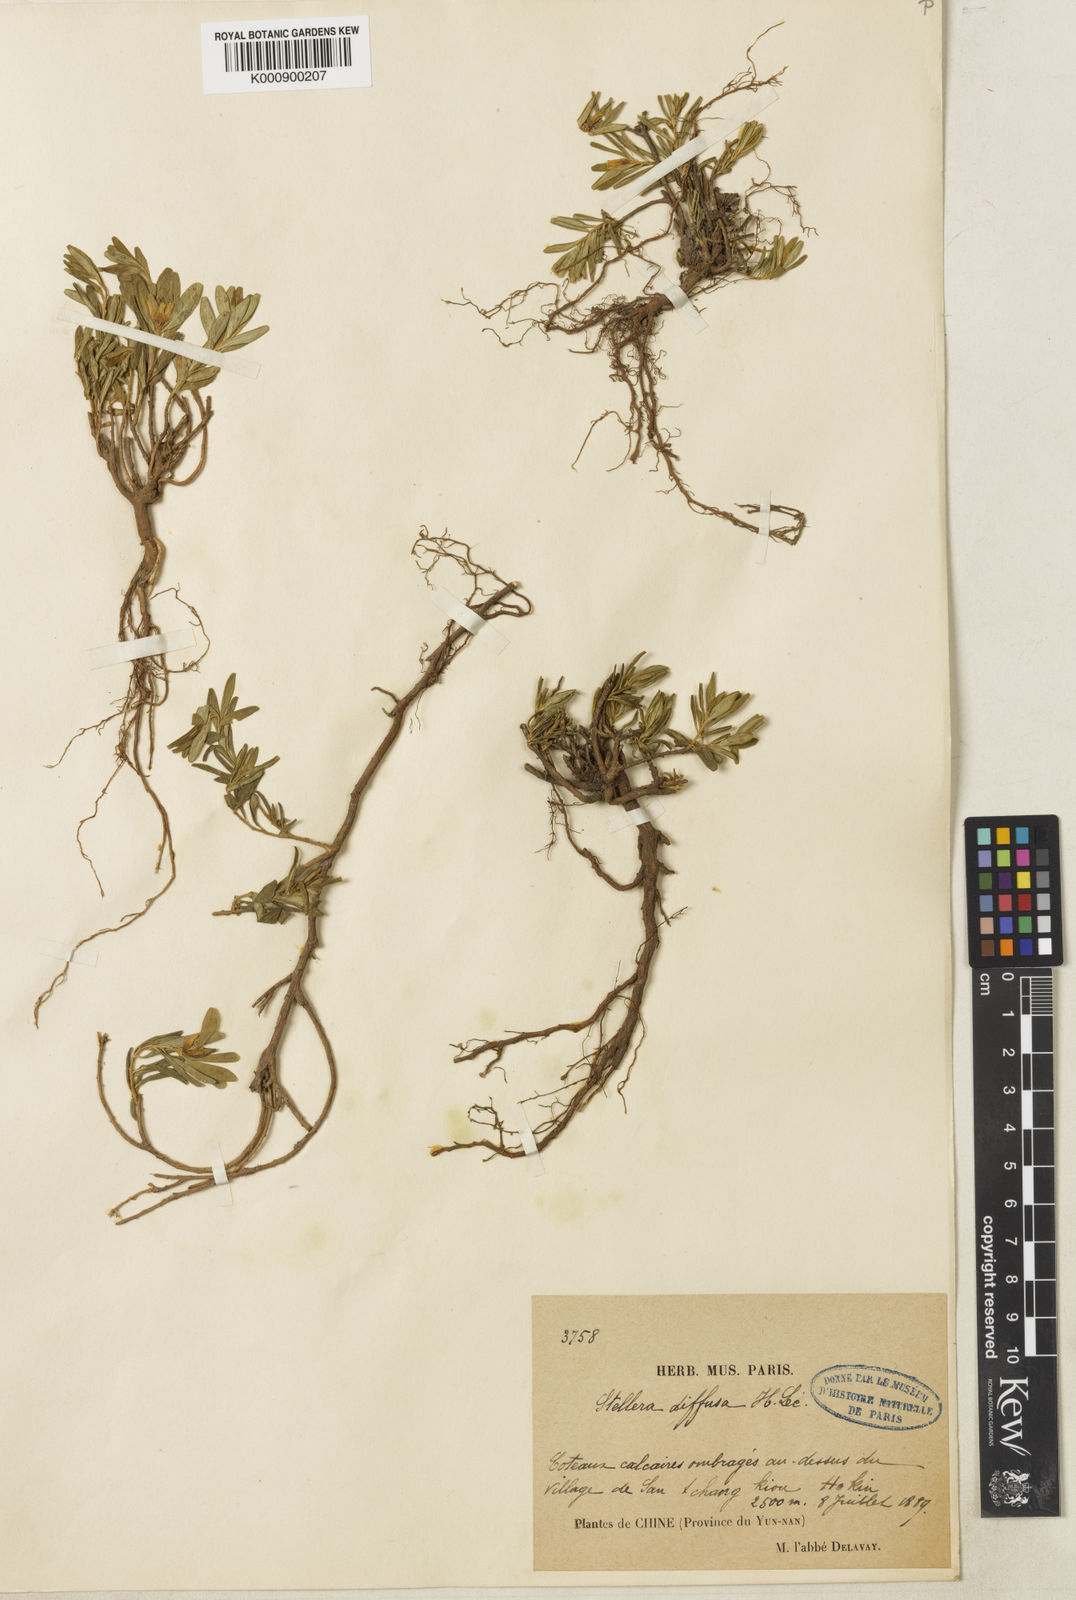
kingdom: Plantae
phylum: Tracheophyta
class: Magnoliopsida
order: Malvales
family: Thymelaeaceae
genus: Wikstroemia
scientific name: Wikstroemia rosmarinifolia
